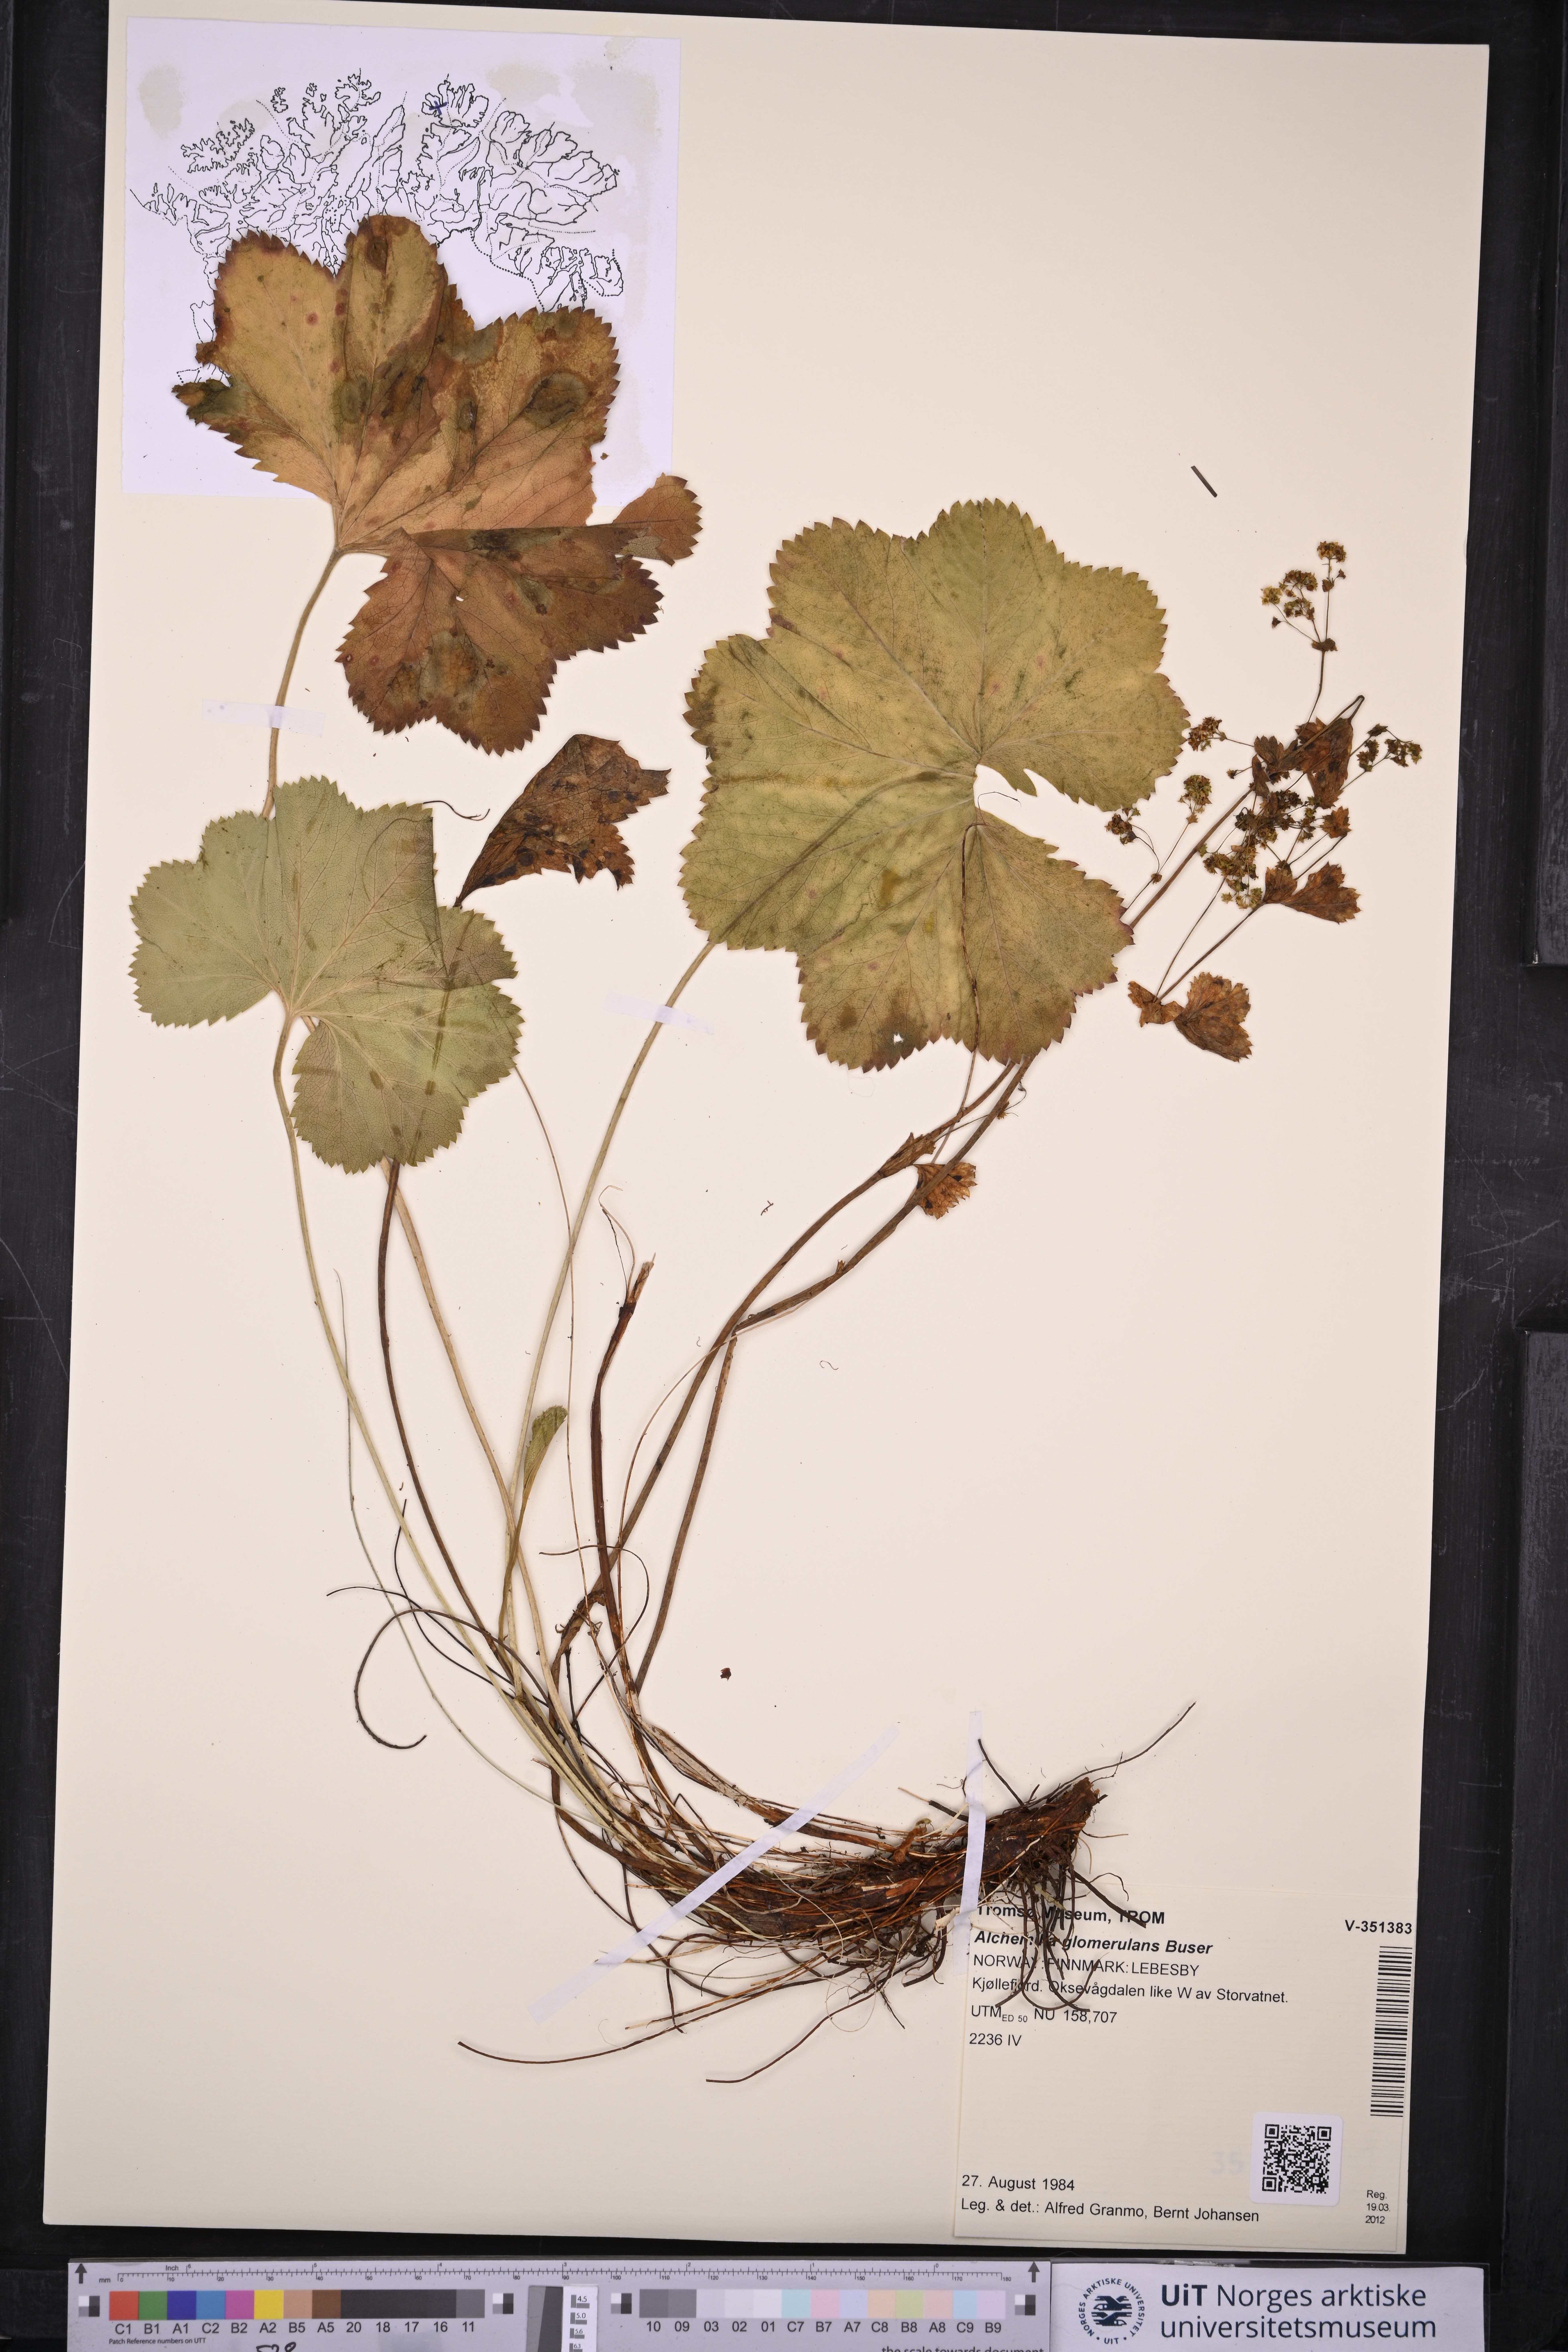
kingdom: Plantae
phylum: Tracheophyta
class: Magnoliopsida
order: Rosales
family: Rosaceae
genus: Alchemilla
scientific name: Alchemilla glomerulans
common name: Clustered lady's mantle
